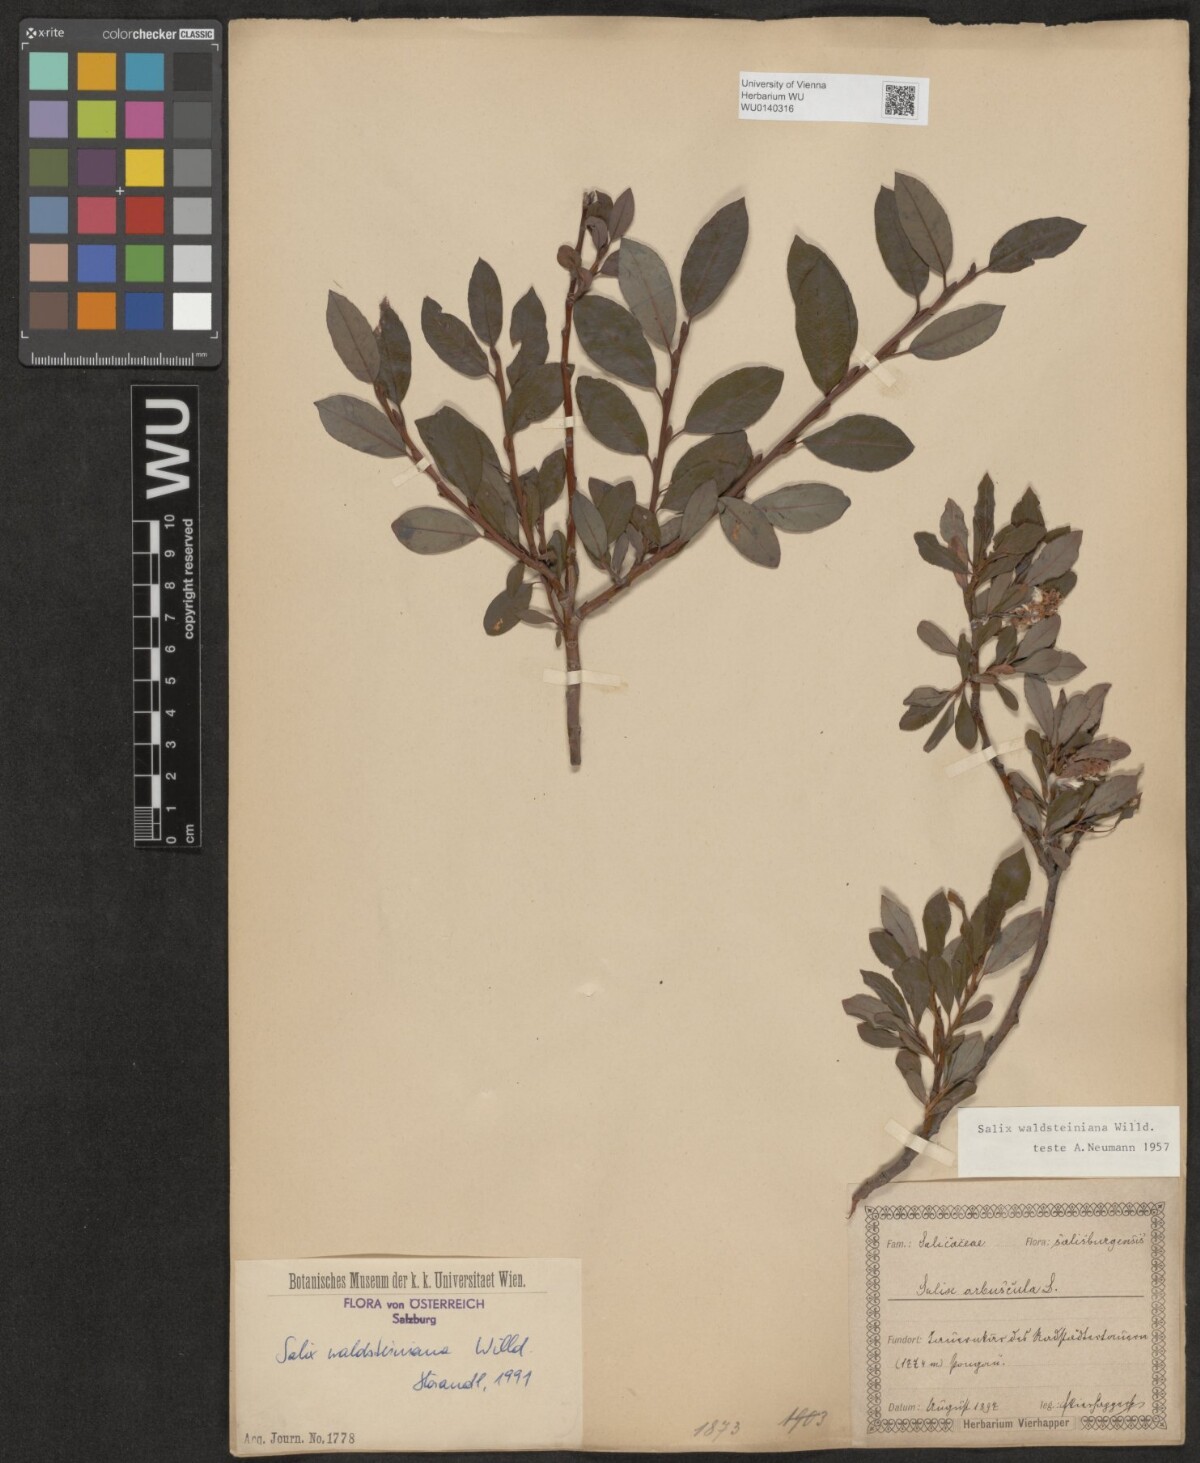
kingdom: Plantae
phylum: Tracheophyta
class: Magnoliopsida
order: Malpighiales
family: Salicaceae
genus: Salix
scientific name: Salix waldsteiniana
